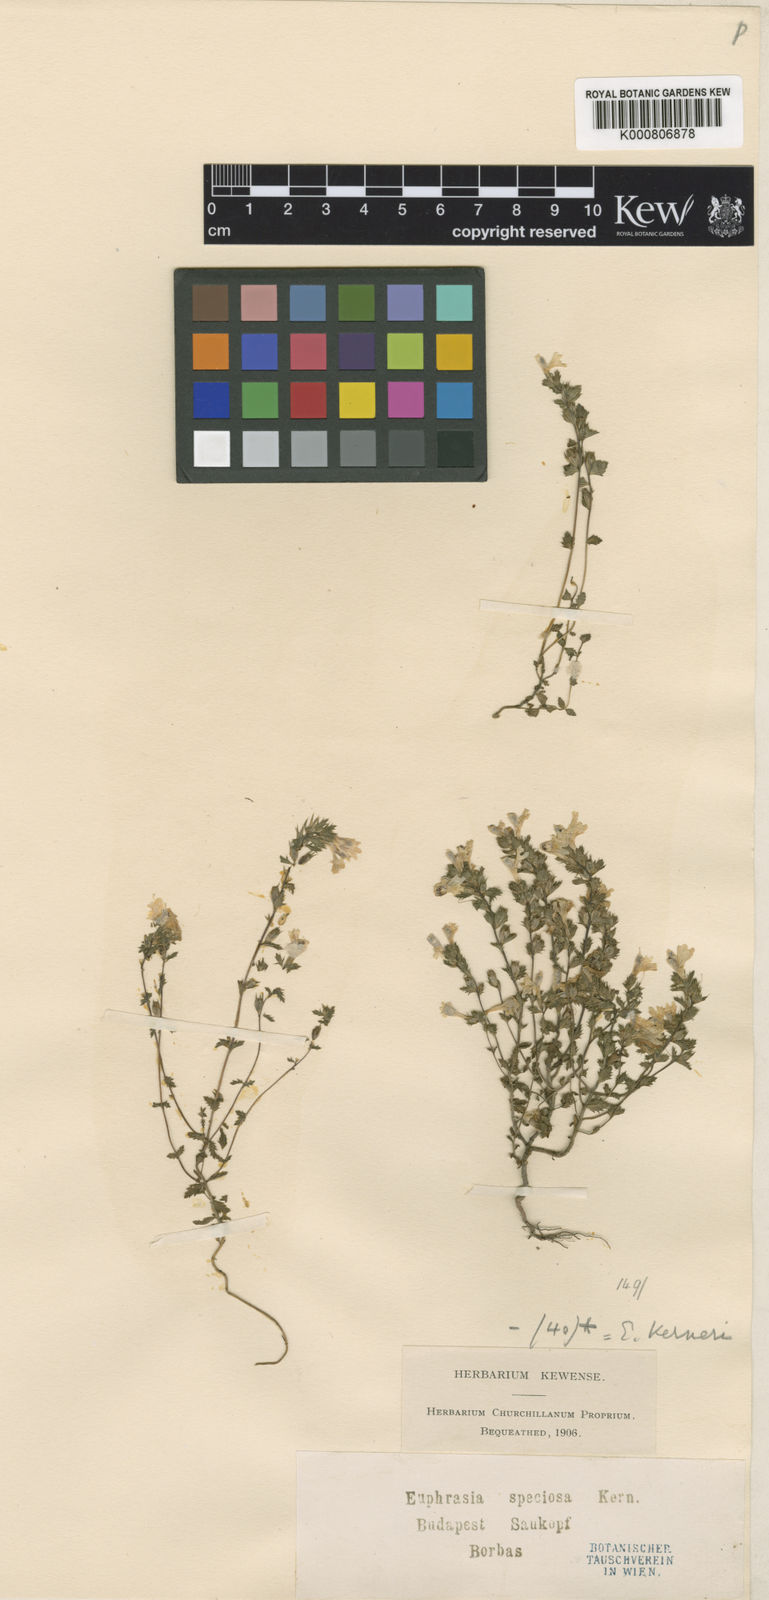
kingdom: Plantae
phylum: Tracheophyta
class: Magnoliopsida
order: Lamiales
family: Orobanchaceae
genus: Euphrasia
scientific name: Euphrasia kerneri
